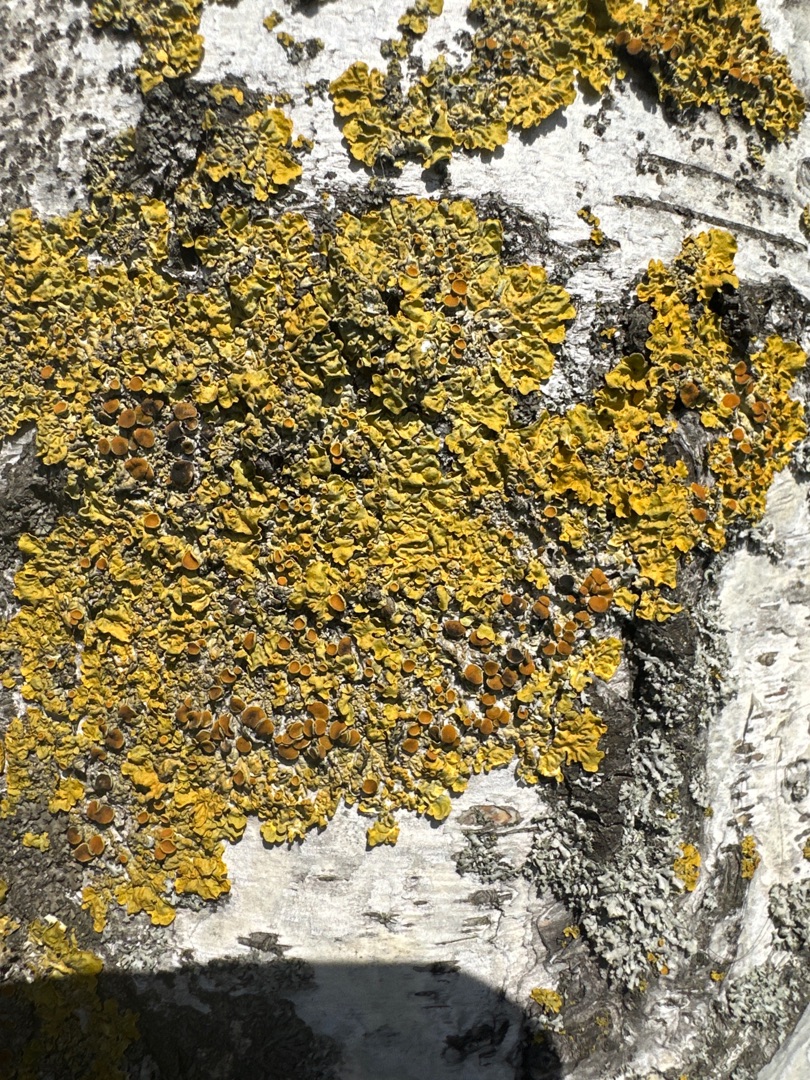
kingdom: Fungi
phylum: Ascomycota
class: Lecanoromycetes
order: Teloschistales
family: Teloschistaceae
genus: Xanthoria
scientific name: Xanthoria parietina
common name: Almindelig væggelav
